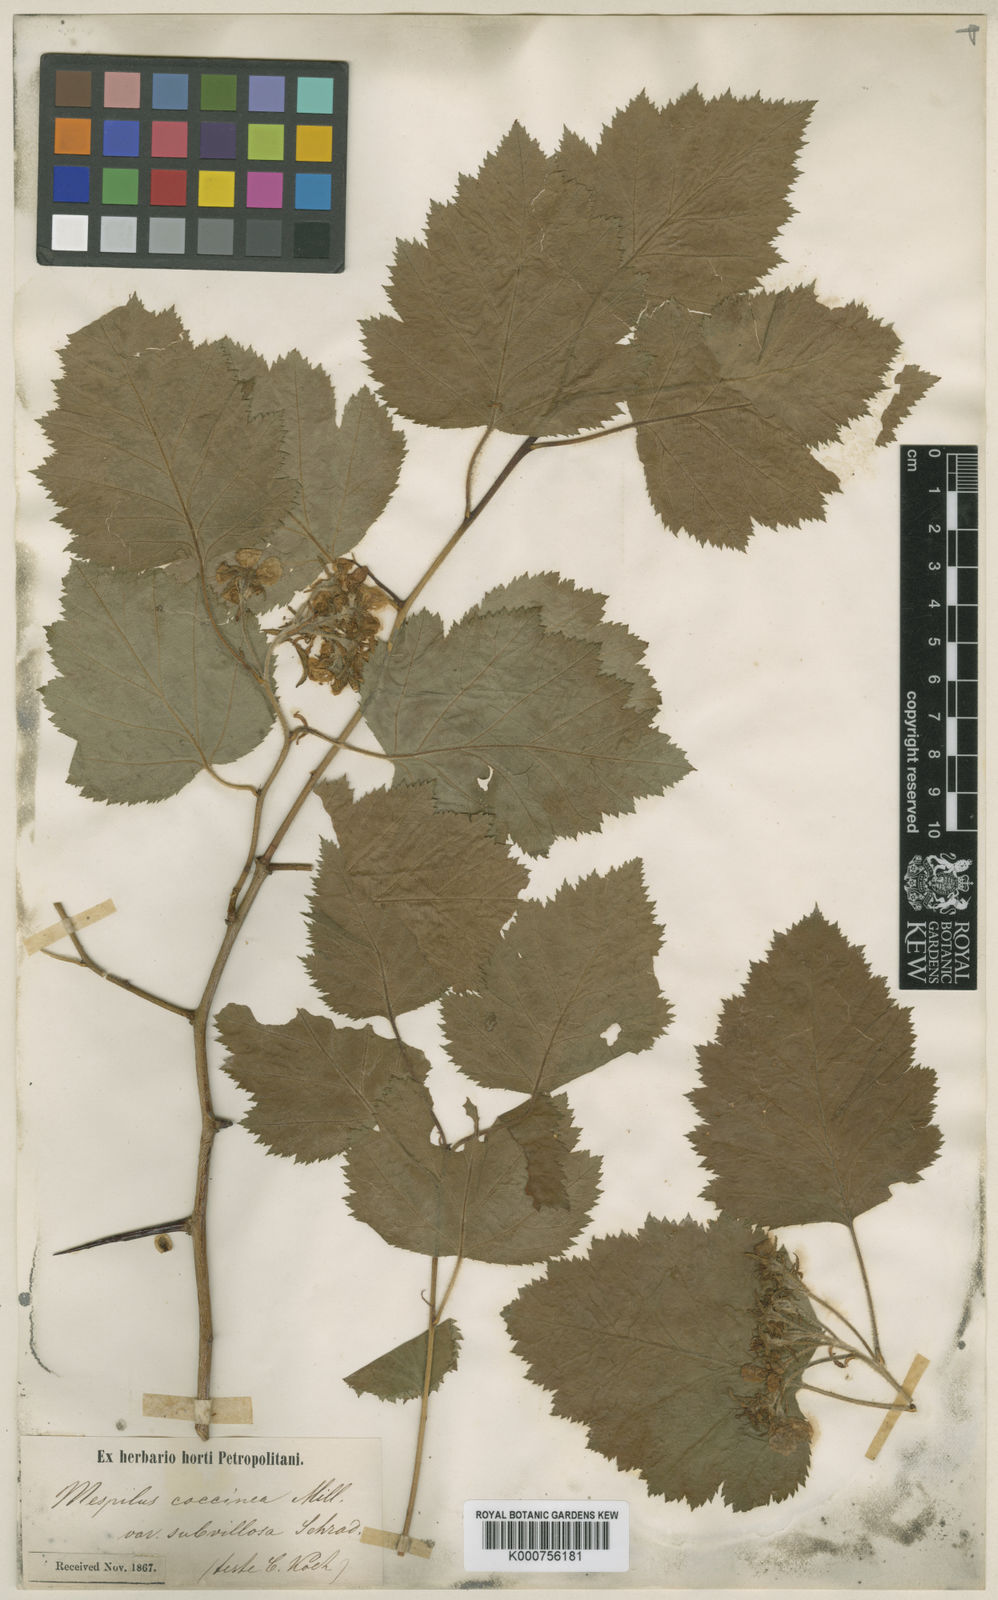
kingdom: Plantae
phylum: Tracheophyta
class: Magnoliopsida
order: Rosales
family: Rosaceae
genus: Crataegus
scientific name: Crataegus mollis
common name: Downy hawthorn
